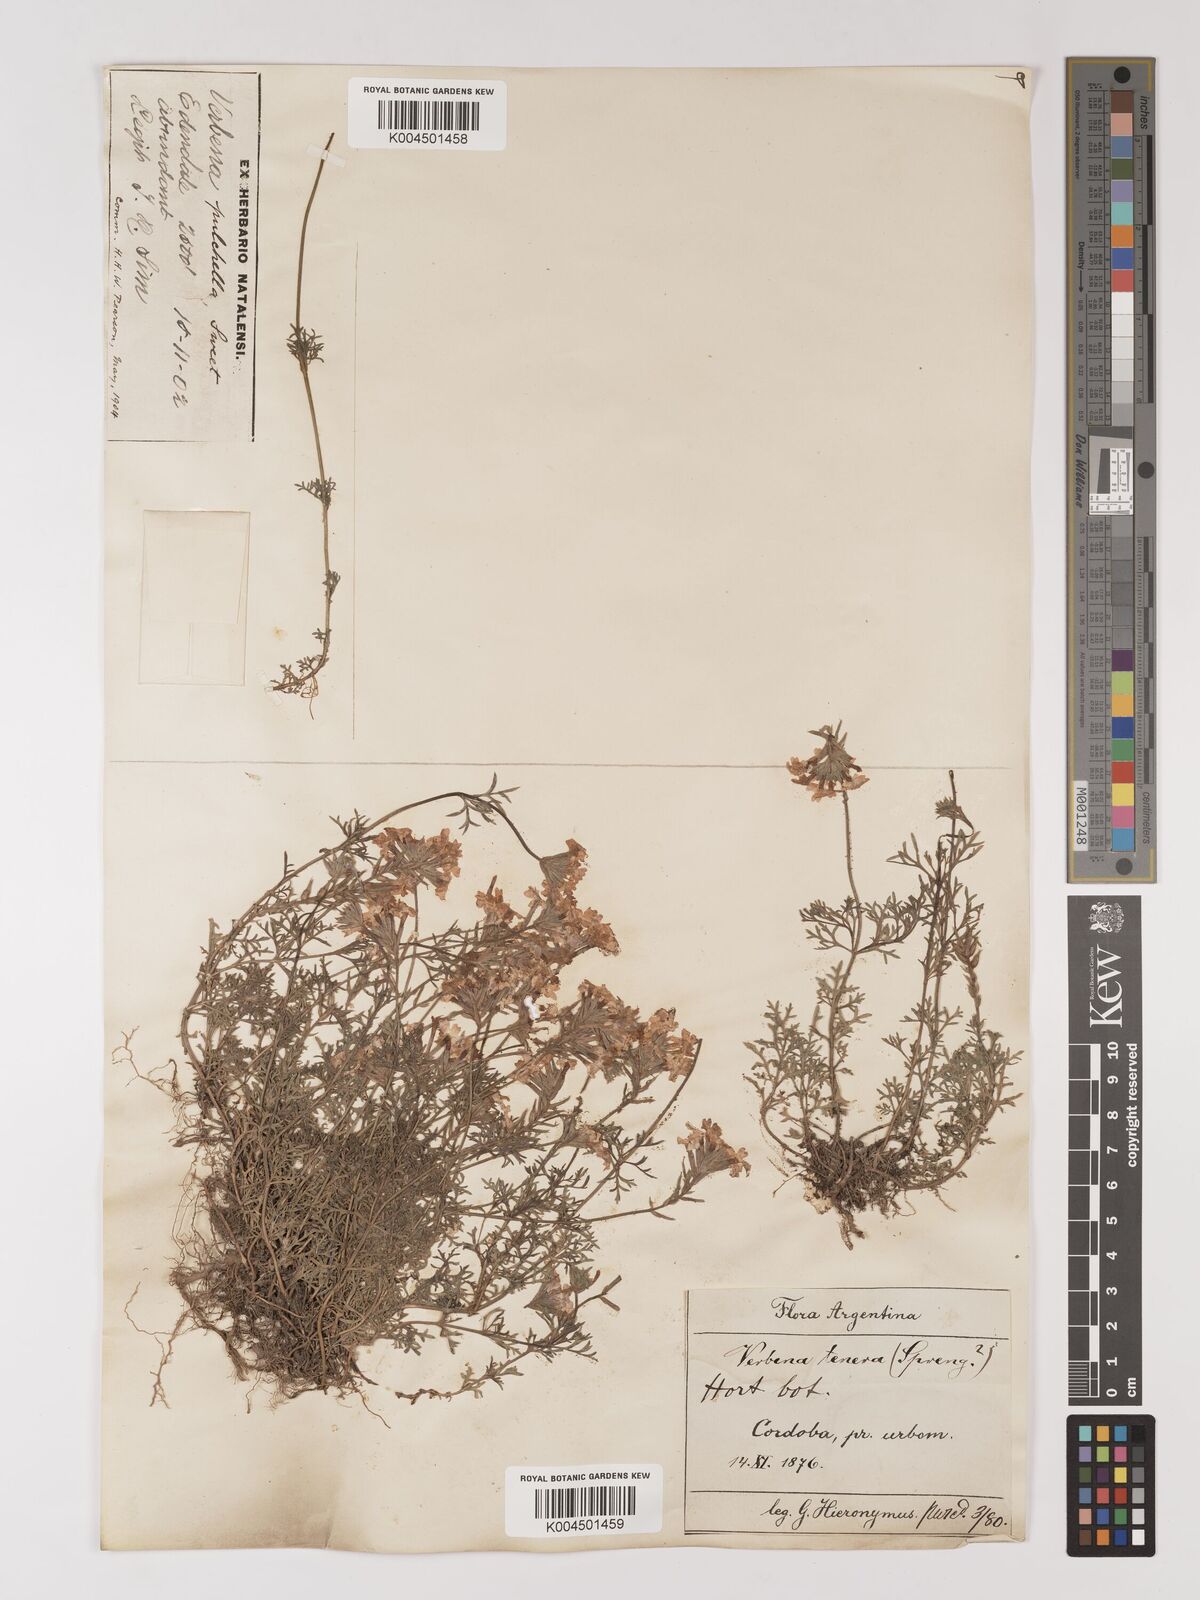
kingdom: Plantae
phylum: Tracheophyta
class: Magnoliopsida
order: Lamiales
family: Verbenaceae
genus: Verbena
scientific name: Verbena tenera
